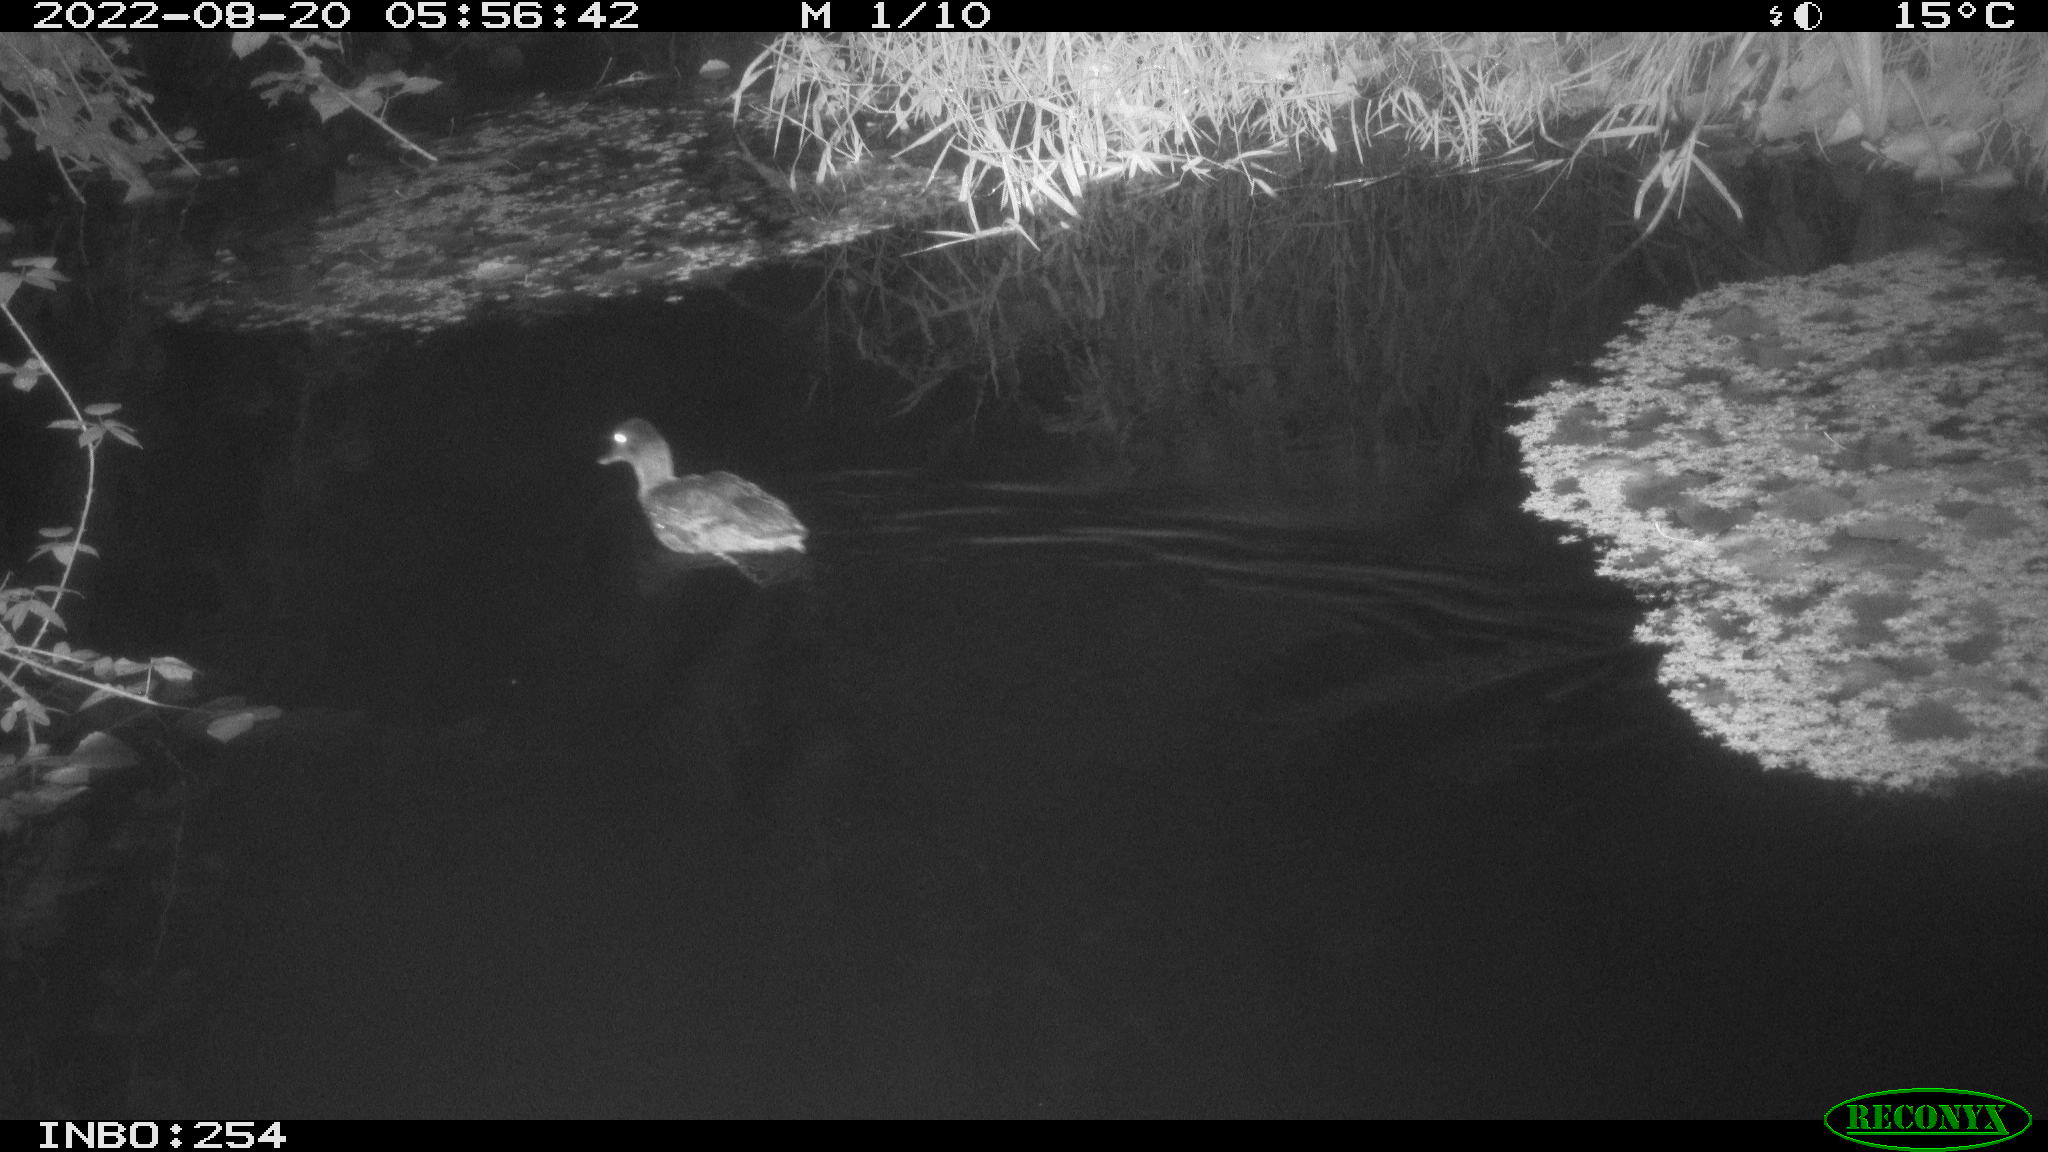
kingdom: Animalia
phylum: Chordata
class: Aves
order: Anseriformes
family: Anatidae
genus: Anas
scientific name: Anas platyrhynchos
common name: Mallard
